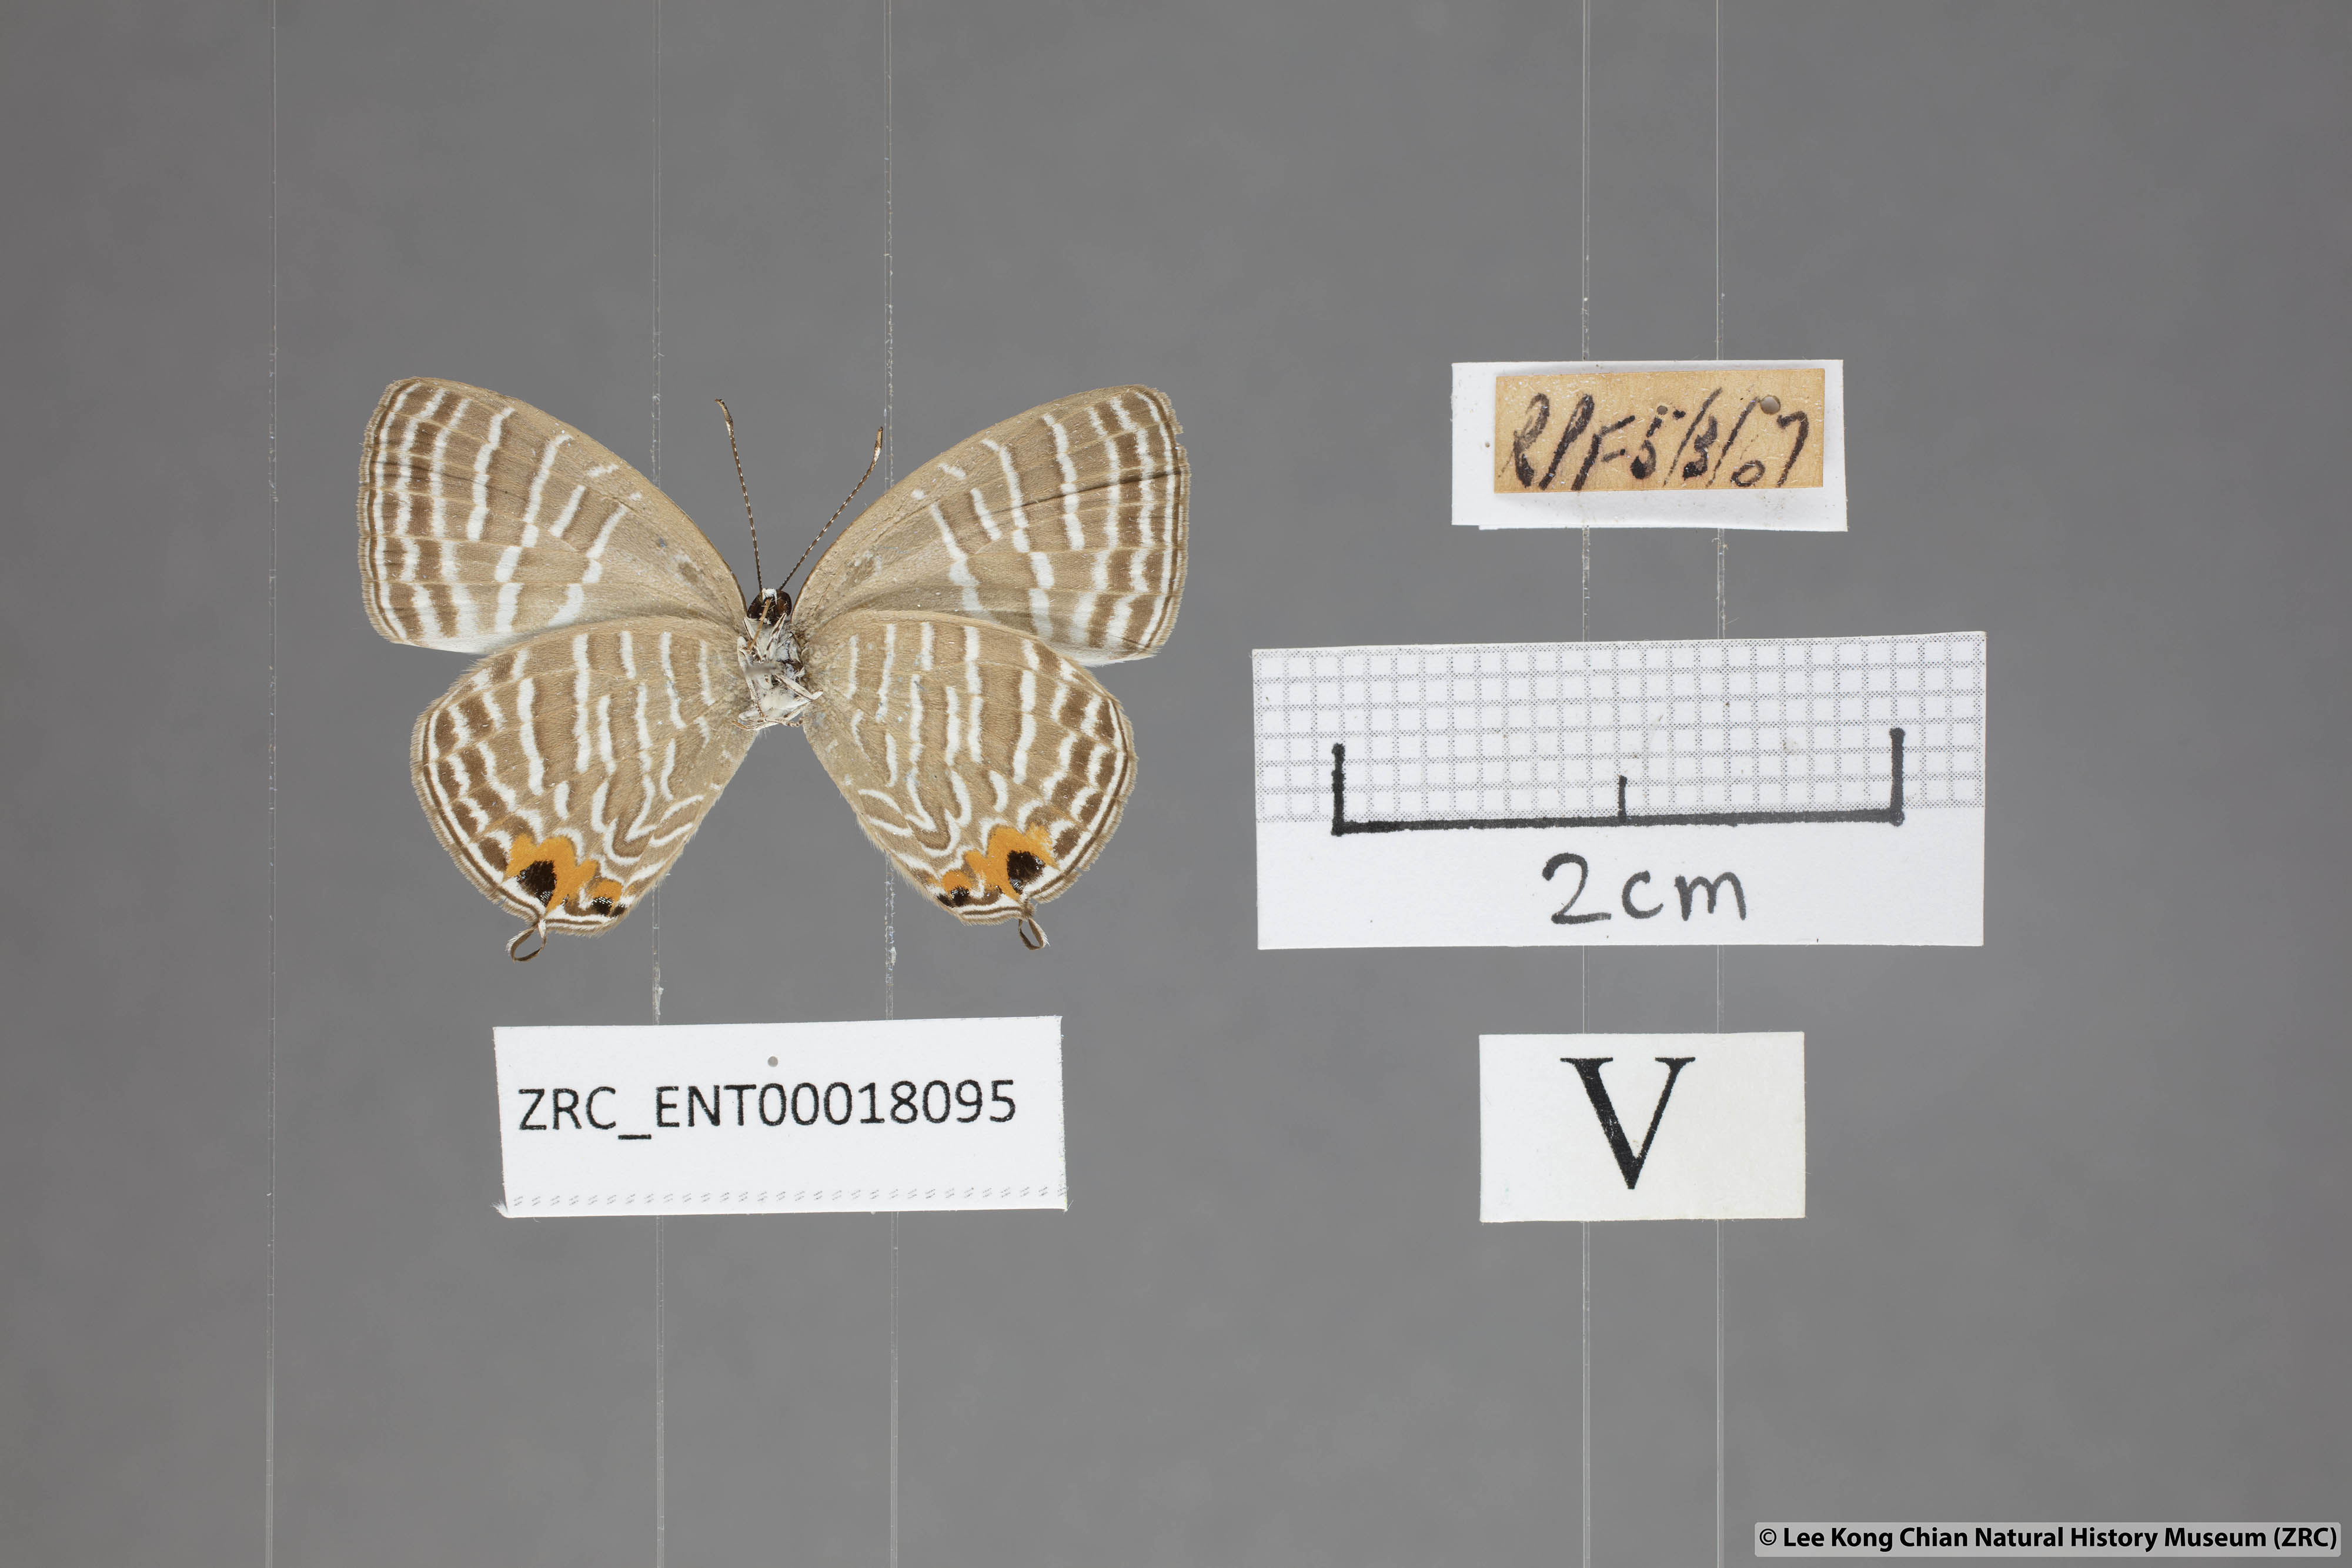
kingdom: Animalia
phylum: Arthropoda
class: Insecta
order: Lepidoptera
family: Lycaenidae
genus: Jamides
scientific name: Jamides celeno
